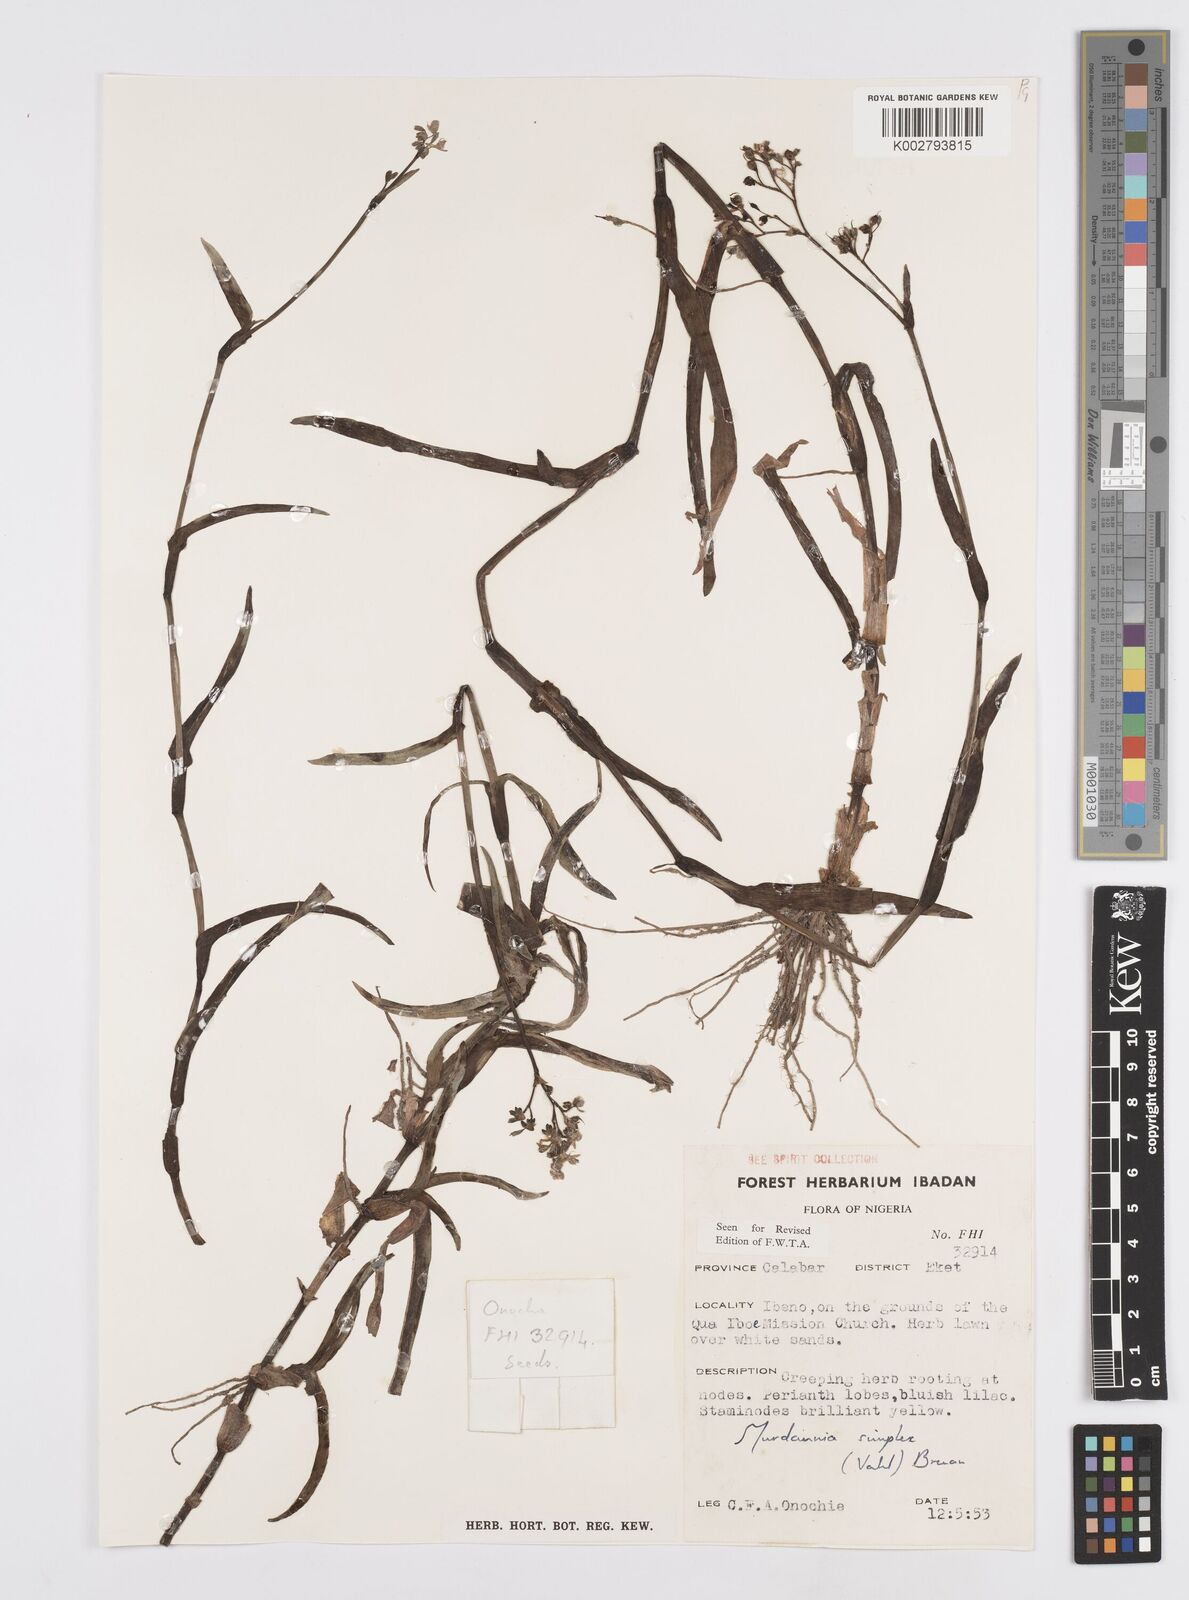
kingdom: Plantae
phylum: Tracheophyta
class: Liliopsida
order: Commelinales
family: Commelinaceae
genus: Murdannia
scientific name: Murdannia simplex
